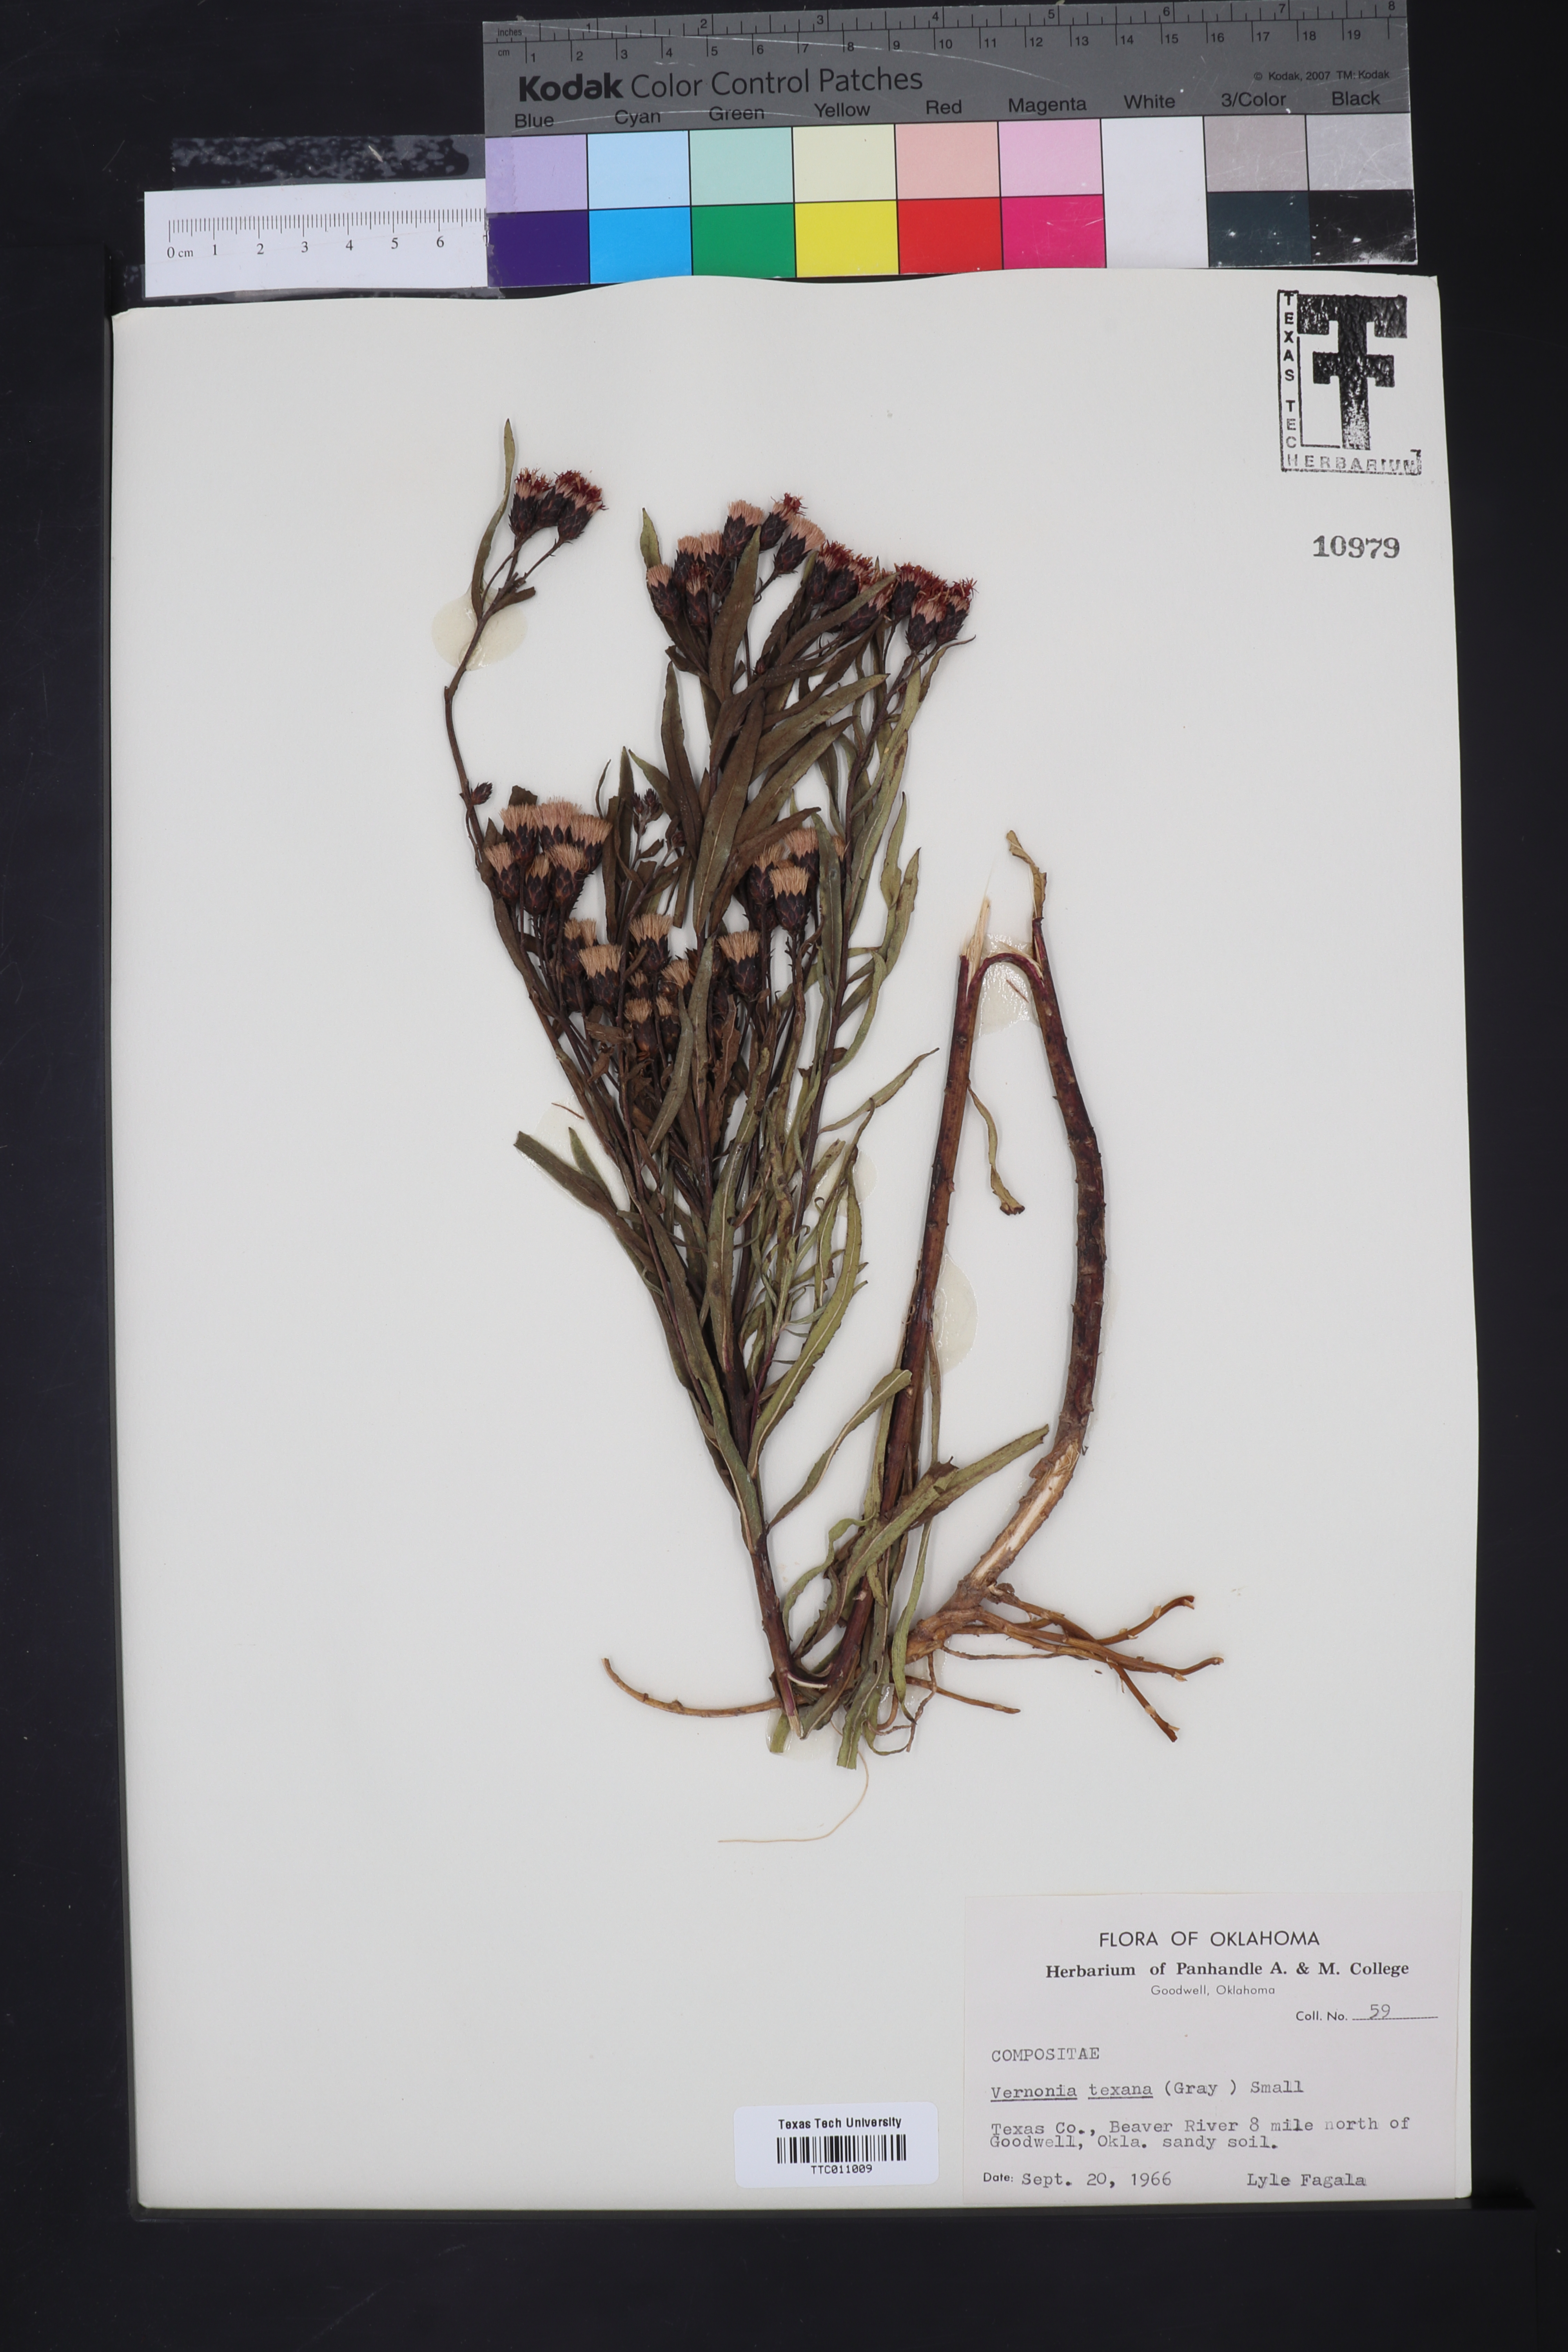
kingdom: Plantae
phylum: Tracheophyta
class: Magnoliopsida
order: Asterales
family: Asteraceae
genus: Vernonia
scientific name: Vernonia texana
